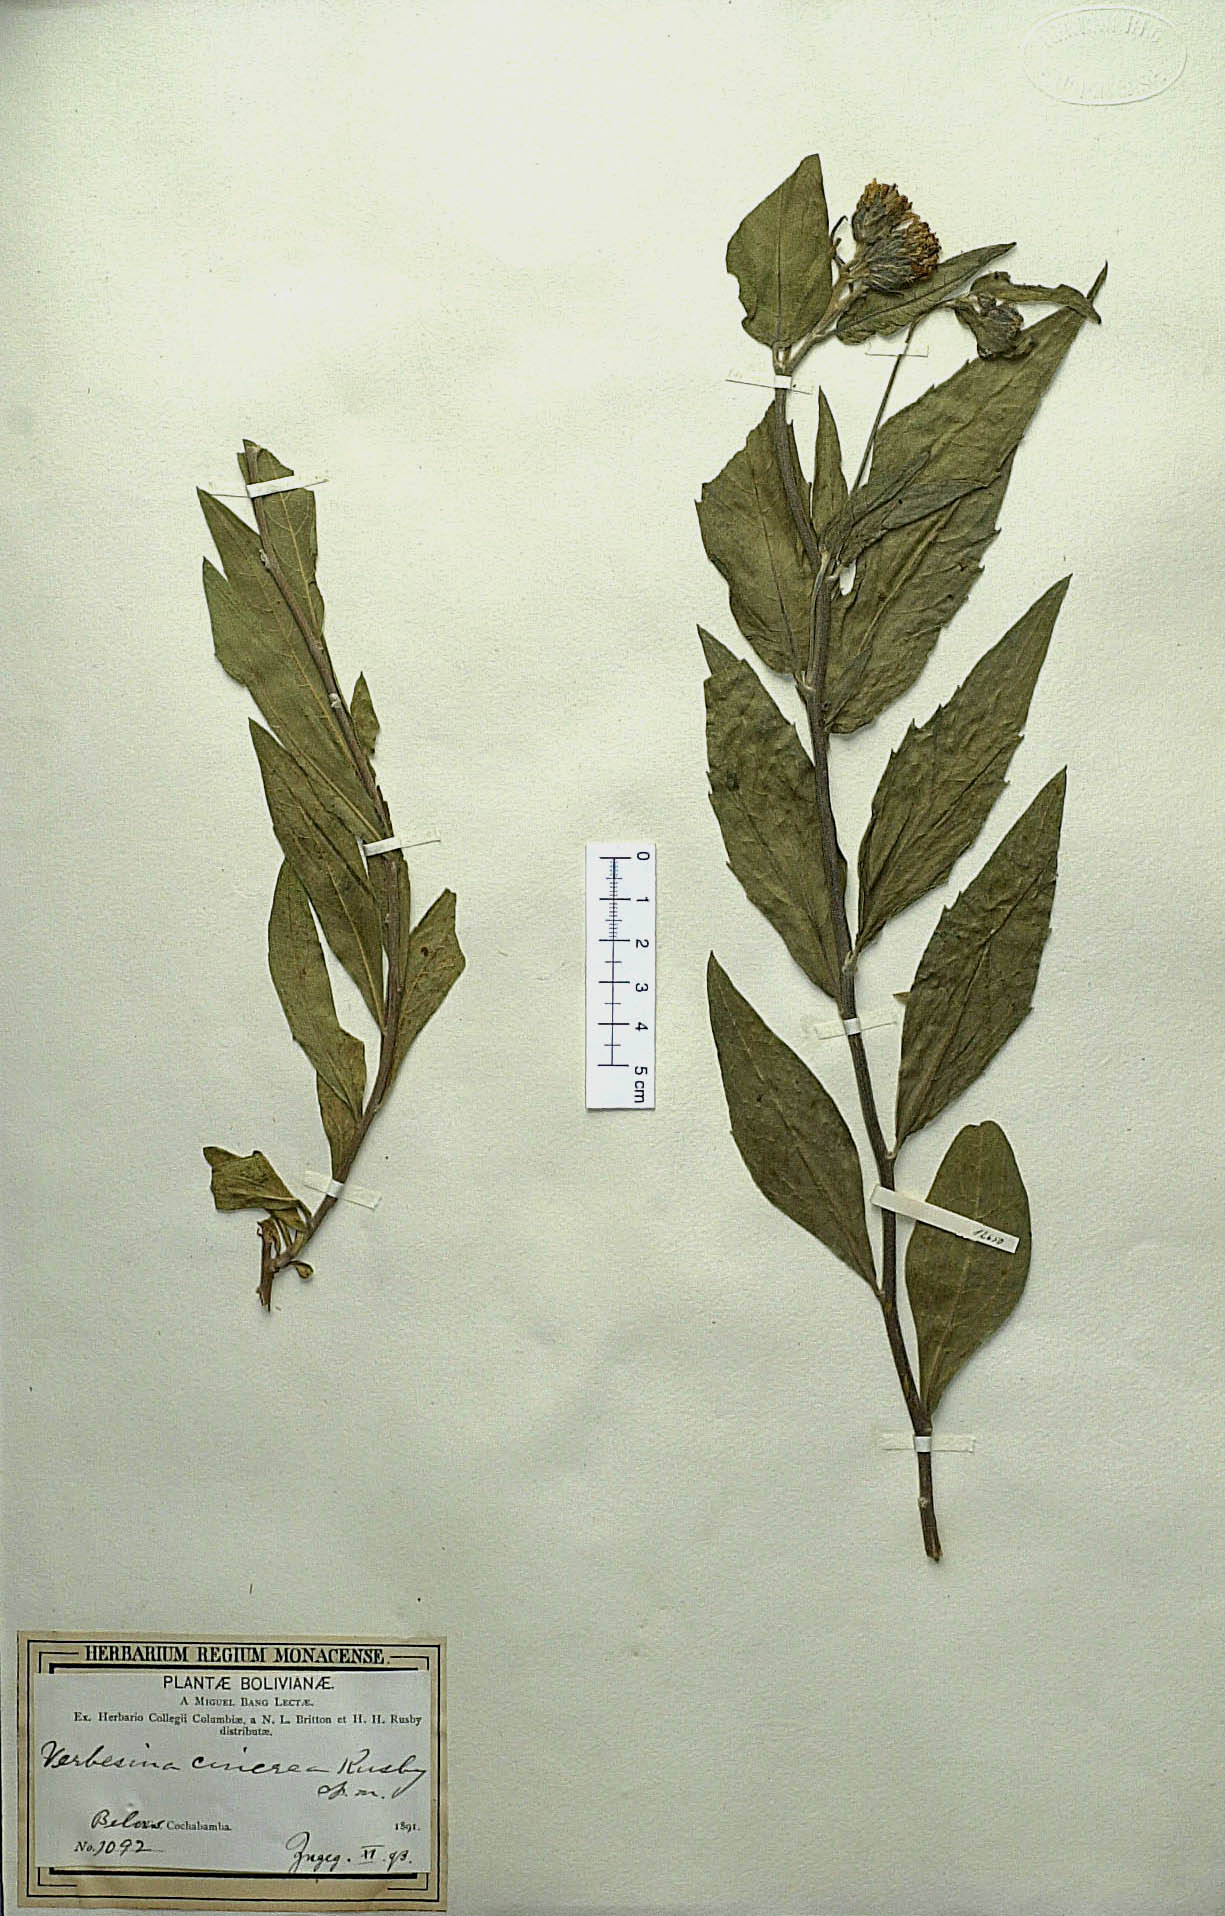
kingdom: Plantae
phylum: Tracheophyta
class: Magnoliopsida
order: Asterales
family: Asteraceae
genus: Verbesina
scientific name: Verbesina cinerea
